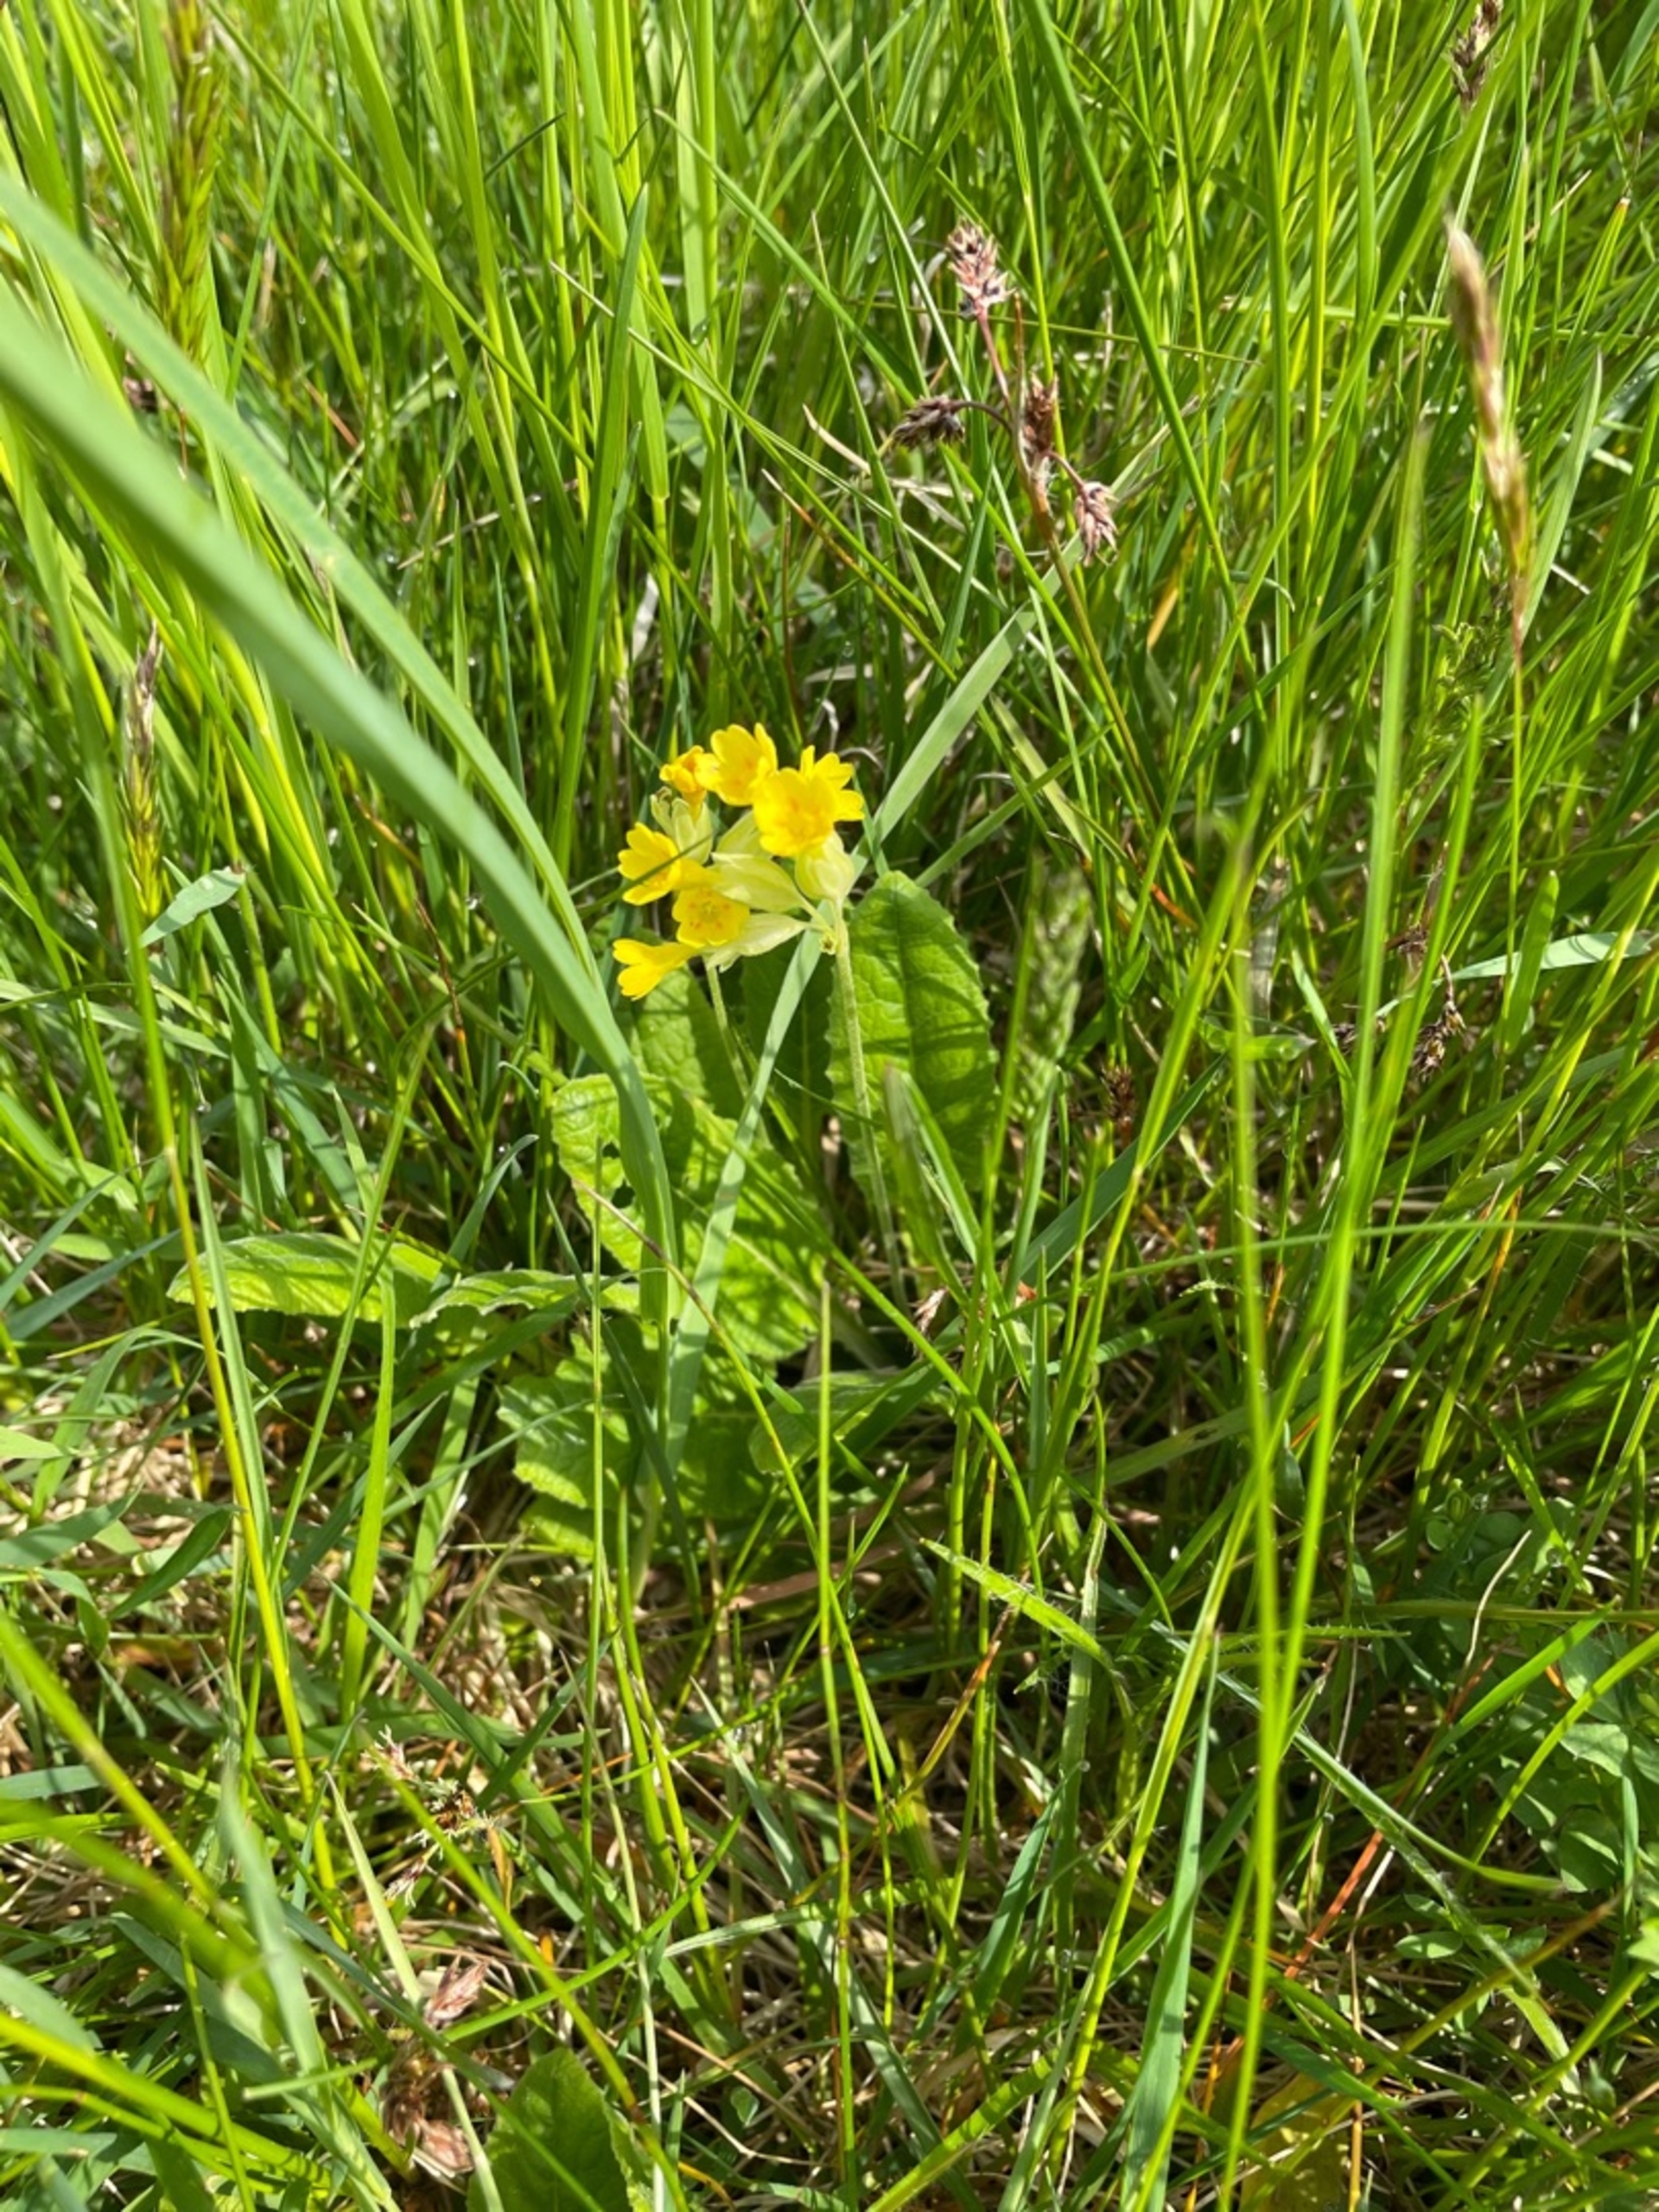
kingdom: Plantae
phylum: Tracheophyta
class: Magnoliopsida
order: Ericales
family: Primulaceae
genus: Primula
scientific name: Primula veris
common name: Hulkravet kodriver
